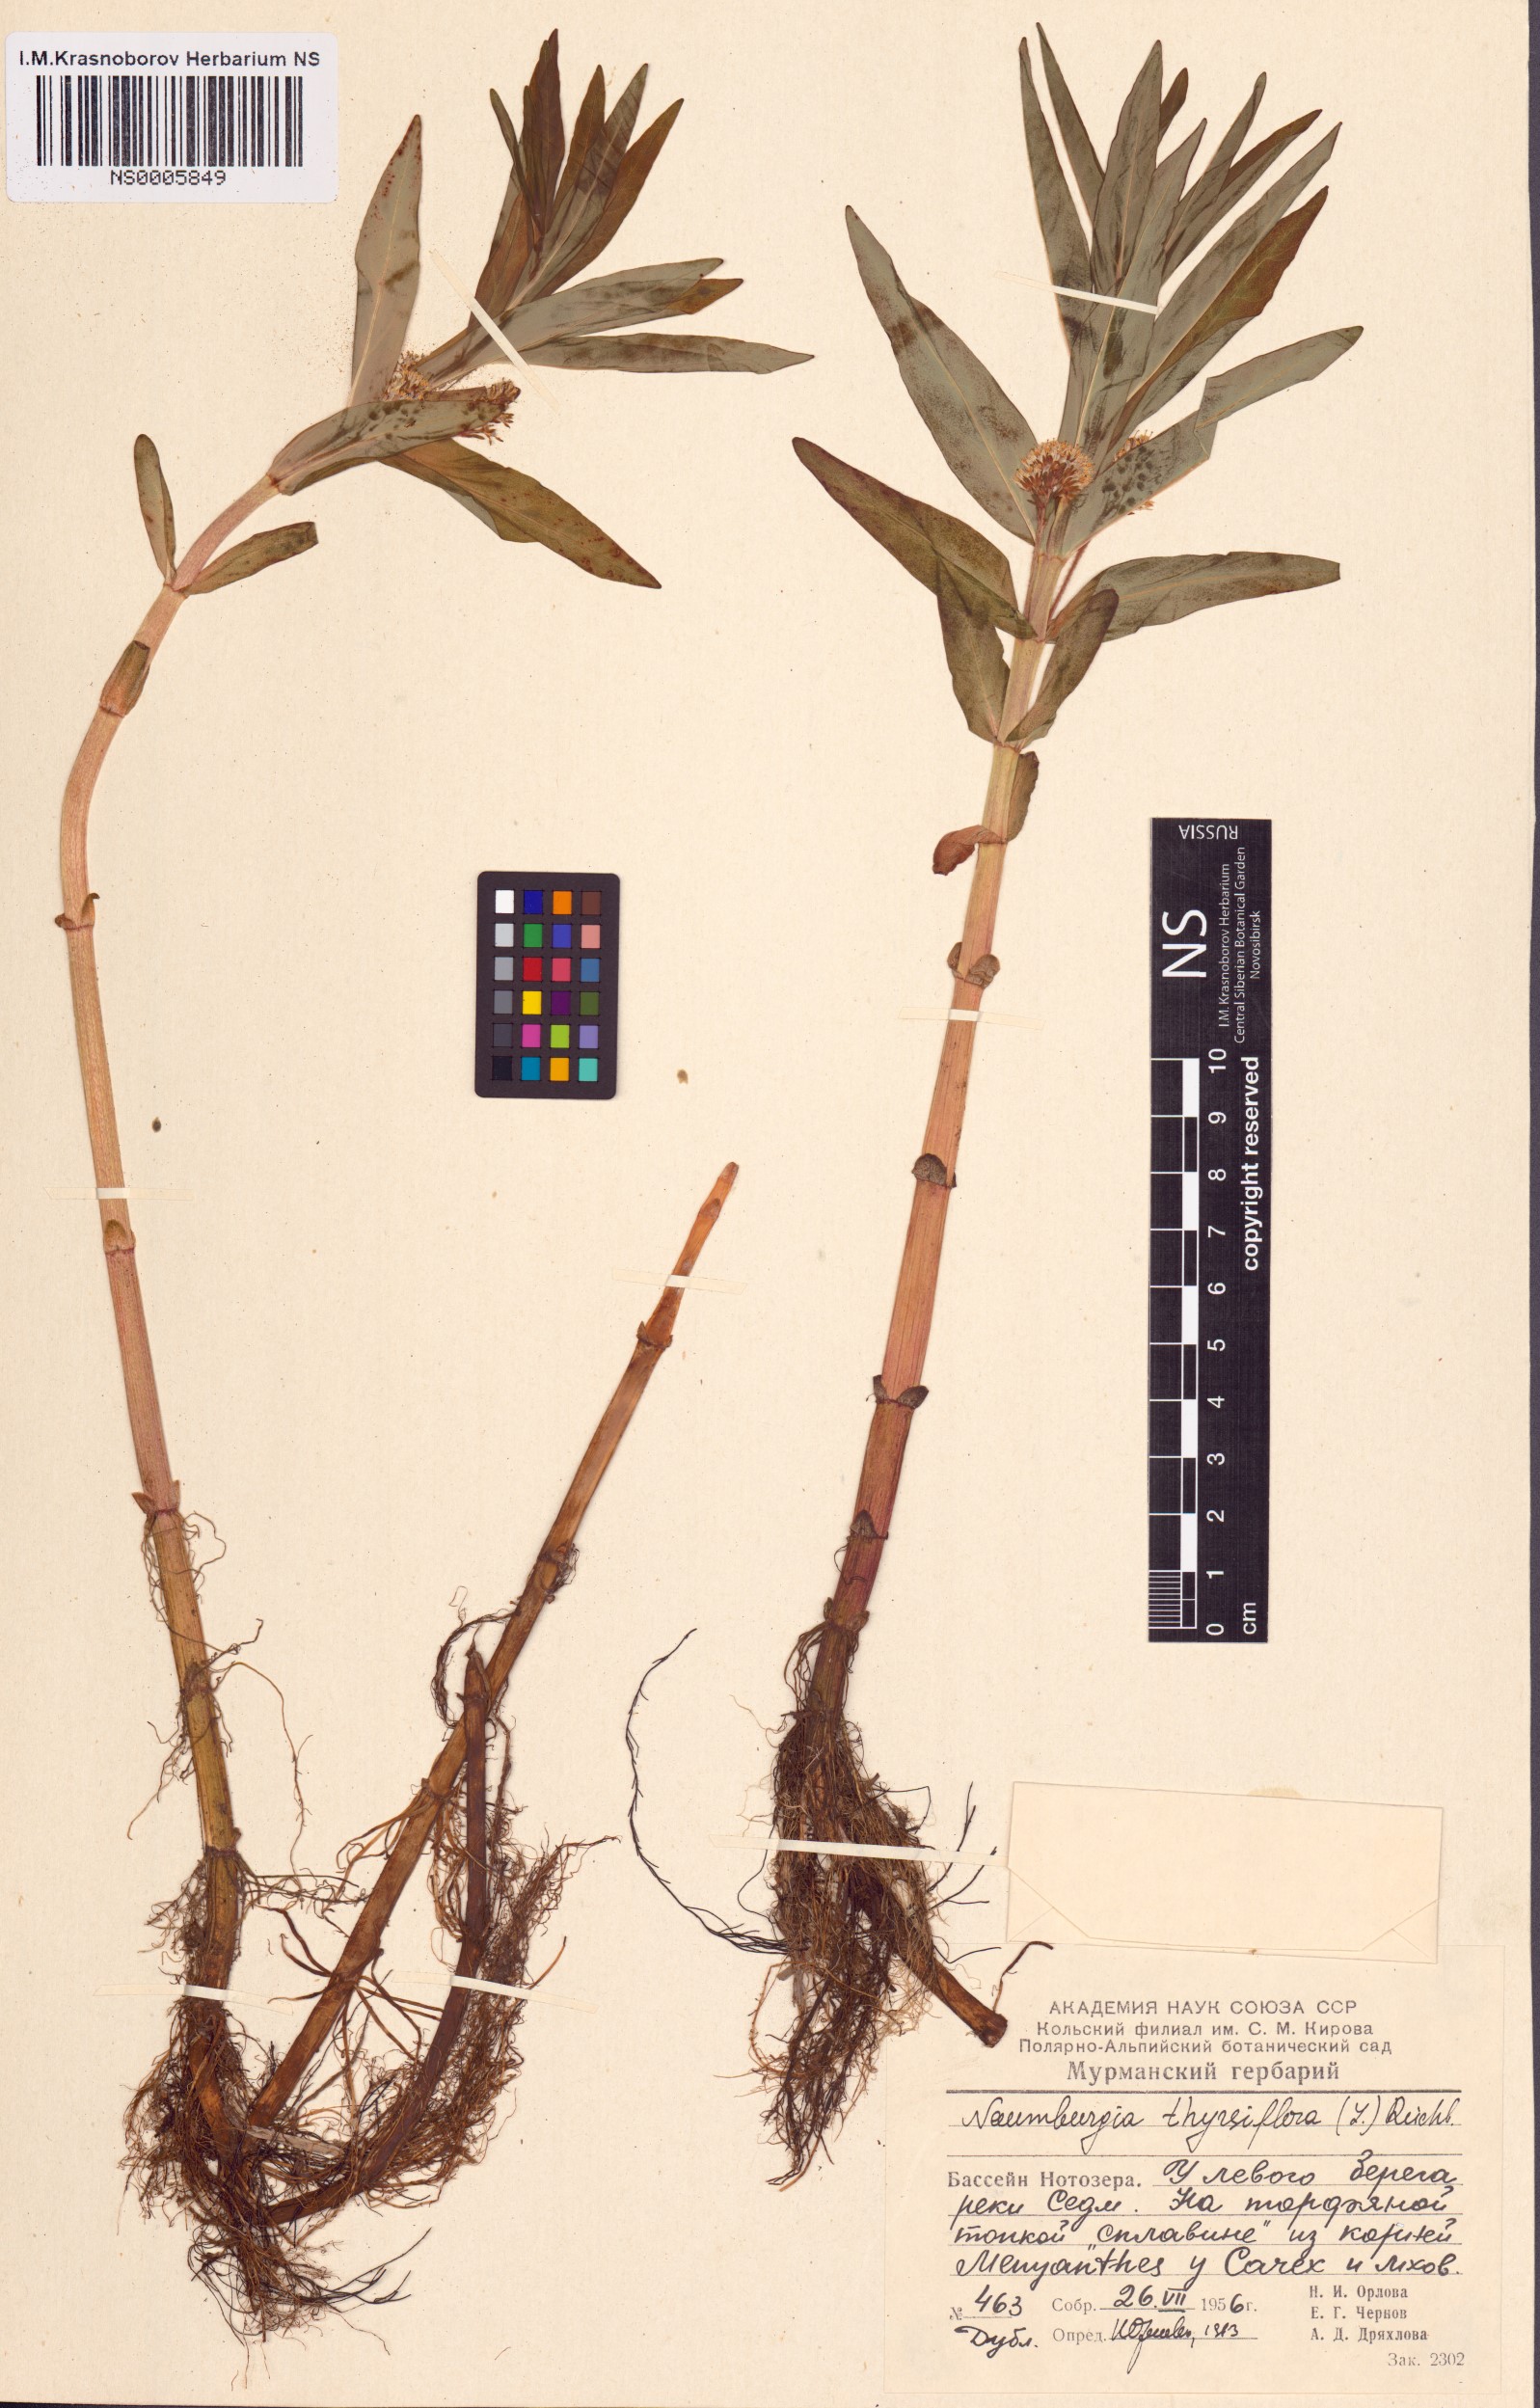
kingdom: Plantae
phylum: Tracheophyta
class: Magnoliopsida
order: Ericales
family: Primulaceae
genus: Lysimachia
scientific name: Lysimachia thyrsiflora
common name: Tufted loosestrife
